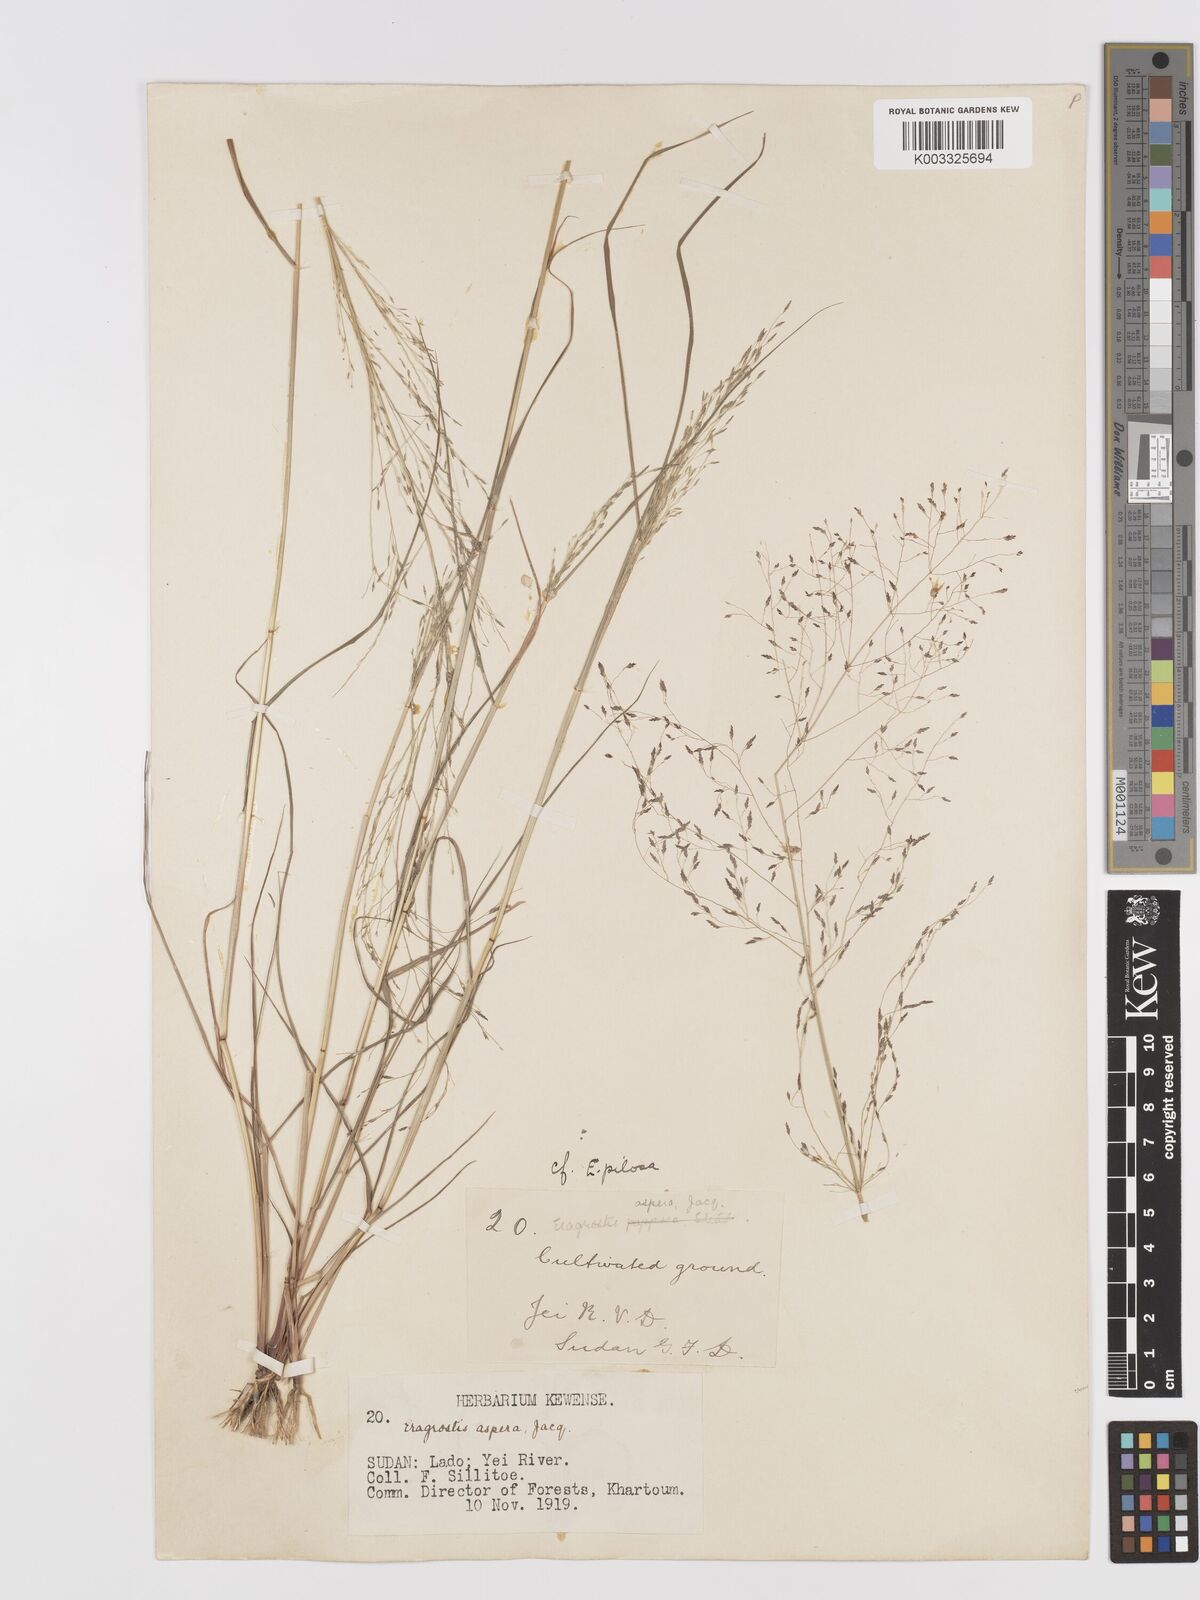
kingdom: Plantae
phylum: Tracheophyta
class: Liliopsida
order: Poales
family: Poaceae
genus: Eragrostis
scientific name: Eragrostis pilosa
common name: Indian lovegrass
